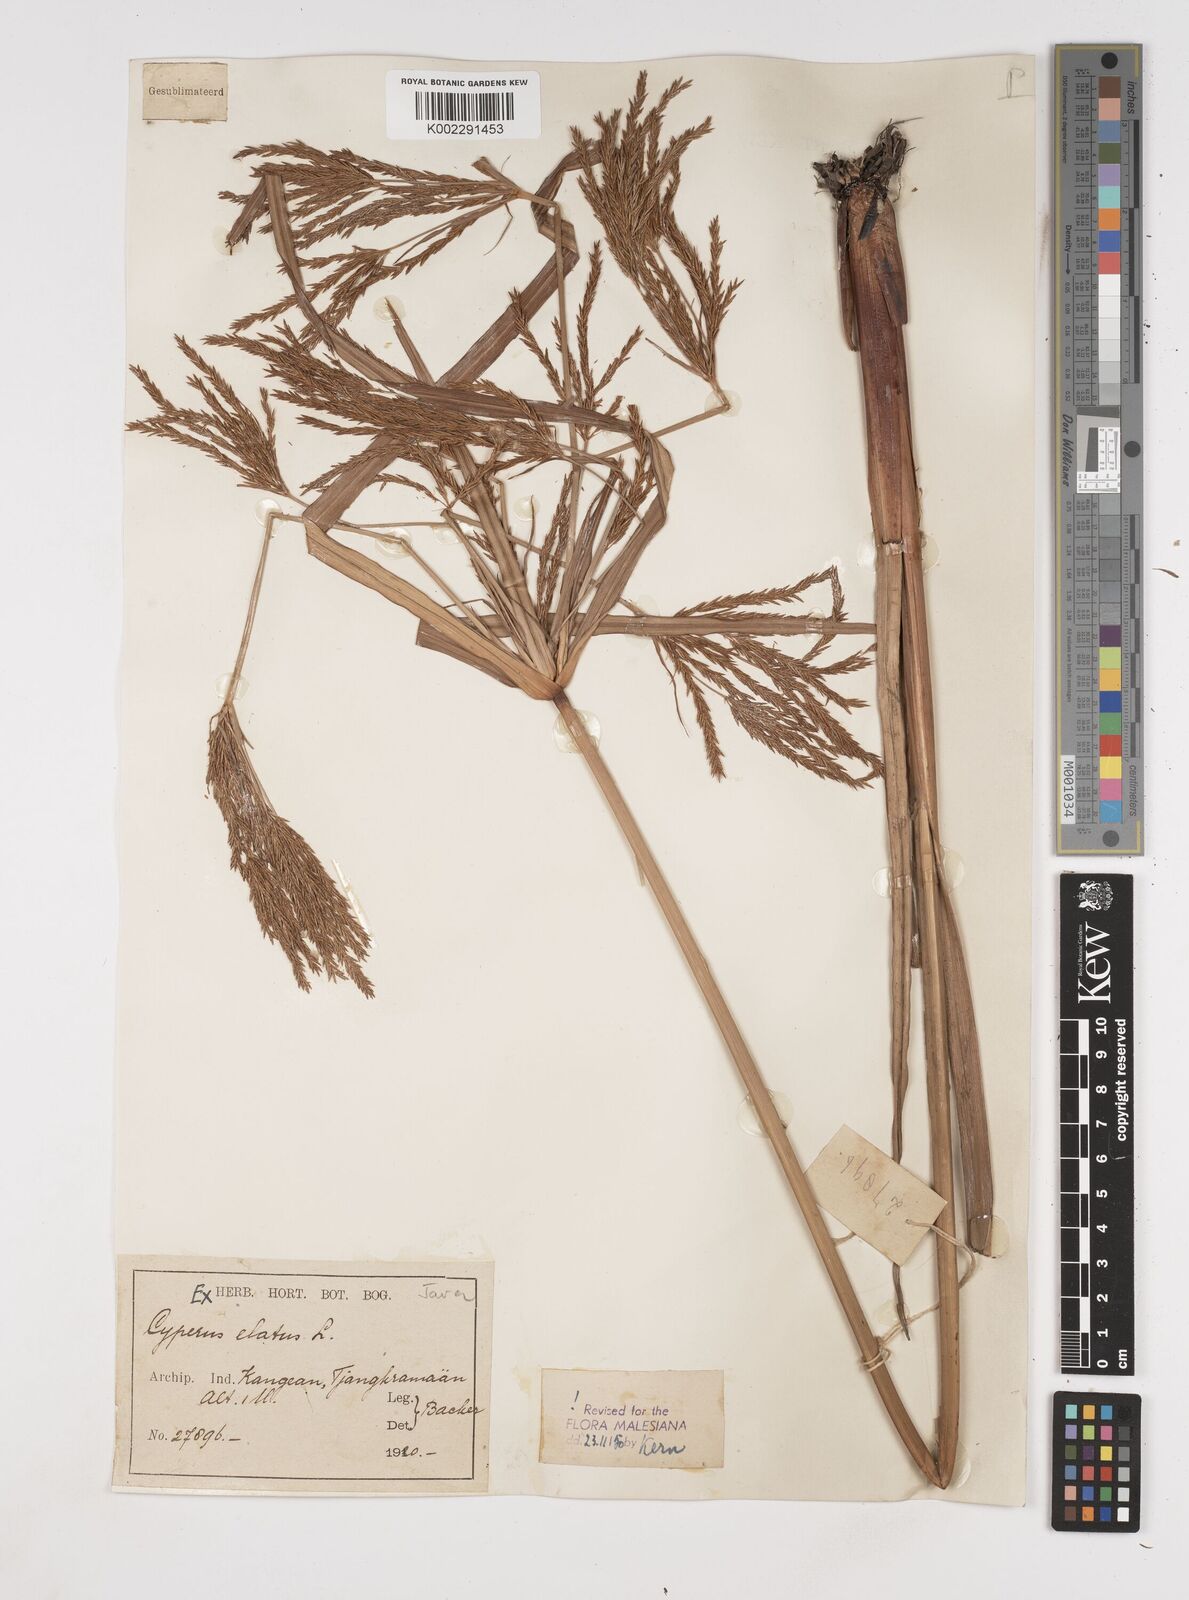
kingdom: Plantae
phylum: Tracheophyta
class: Liliopsida
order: Poales
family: Cyperaceae
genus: Cyperus
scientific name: Cyperus elatus
